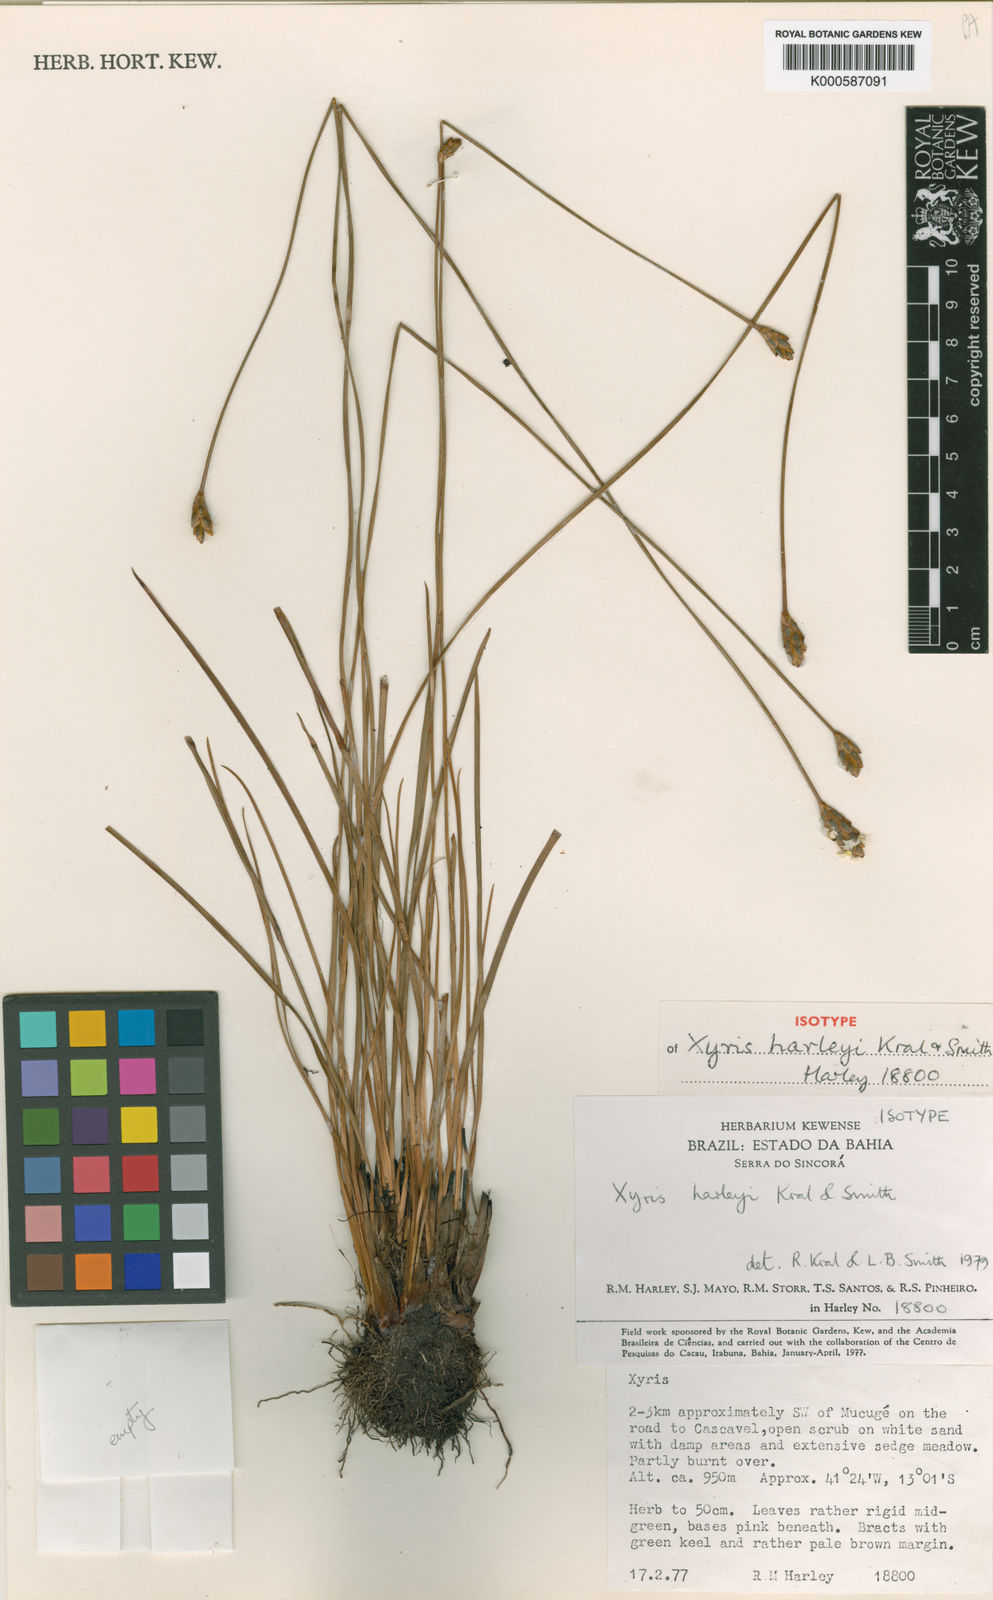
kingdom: Plantae
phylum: Tracheophyta
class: Liliopsida
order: Poales
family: Xyridaceae
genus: Xyris
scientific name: Xyris harleyi
